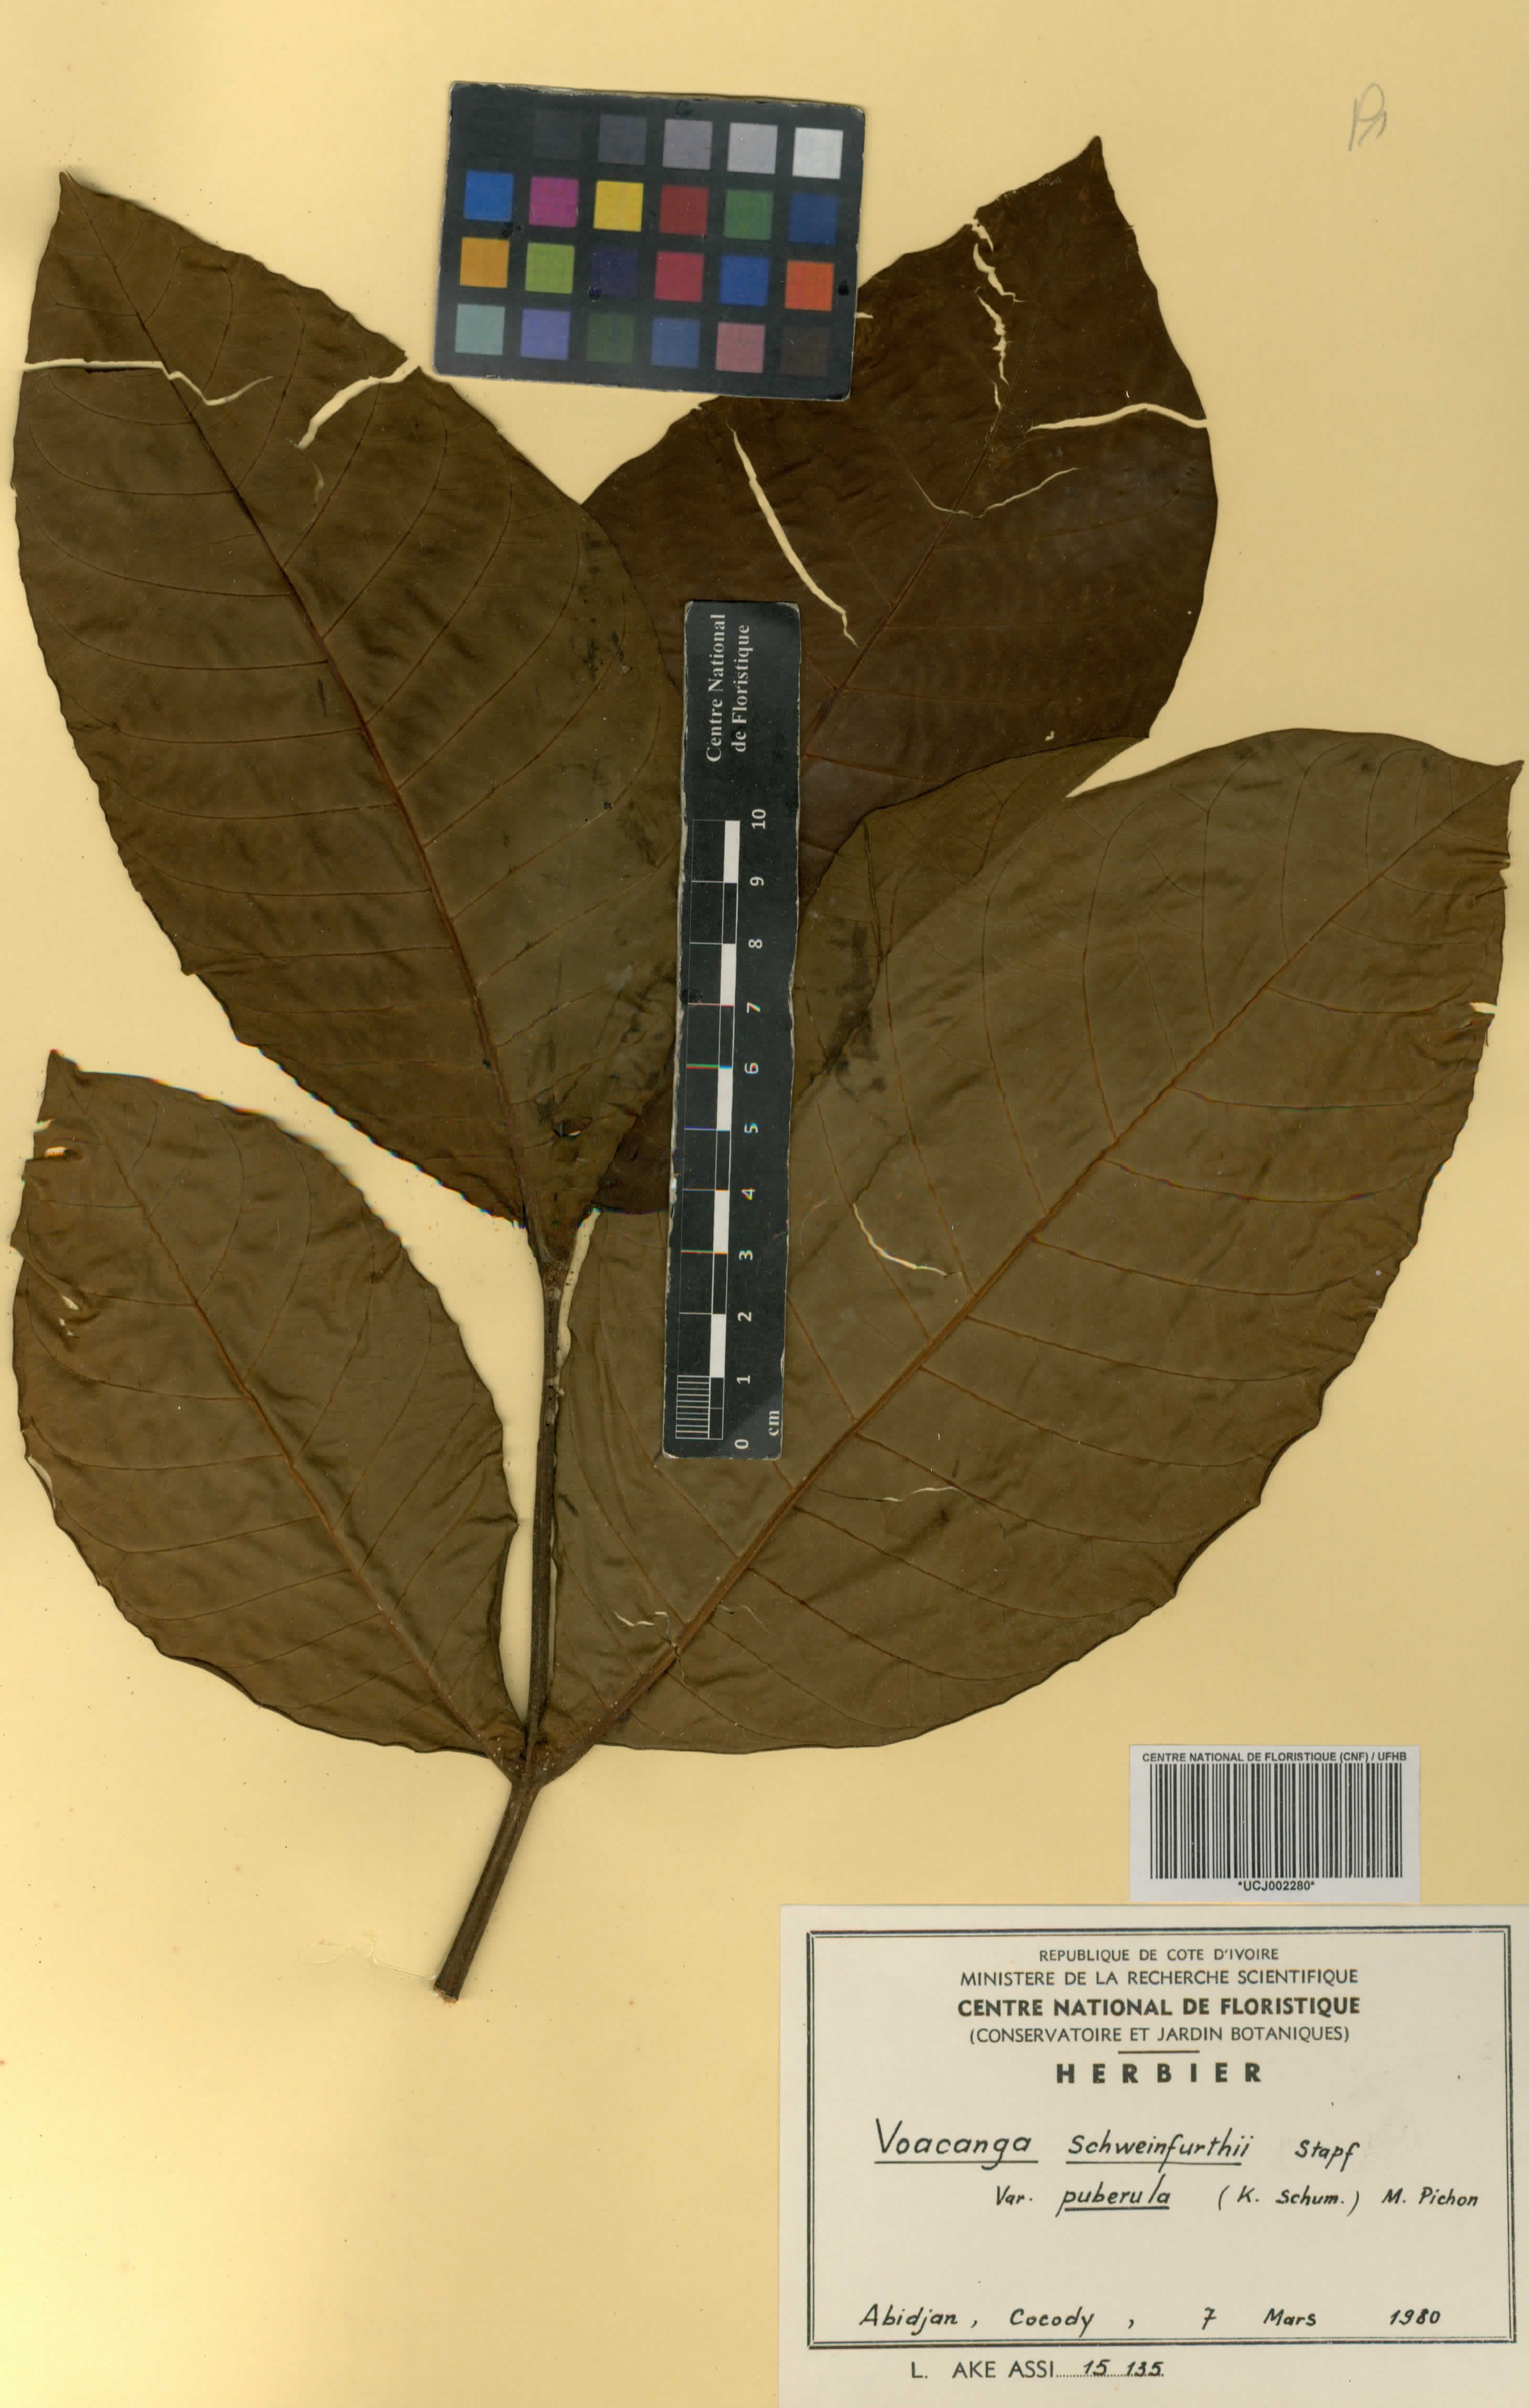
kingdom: Plantae
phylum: Tracheophyta
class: Magnoliopsida
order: Gentianales
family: Apocynaceae
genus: Voacanga
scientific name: Voacanga africana
